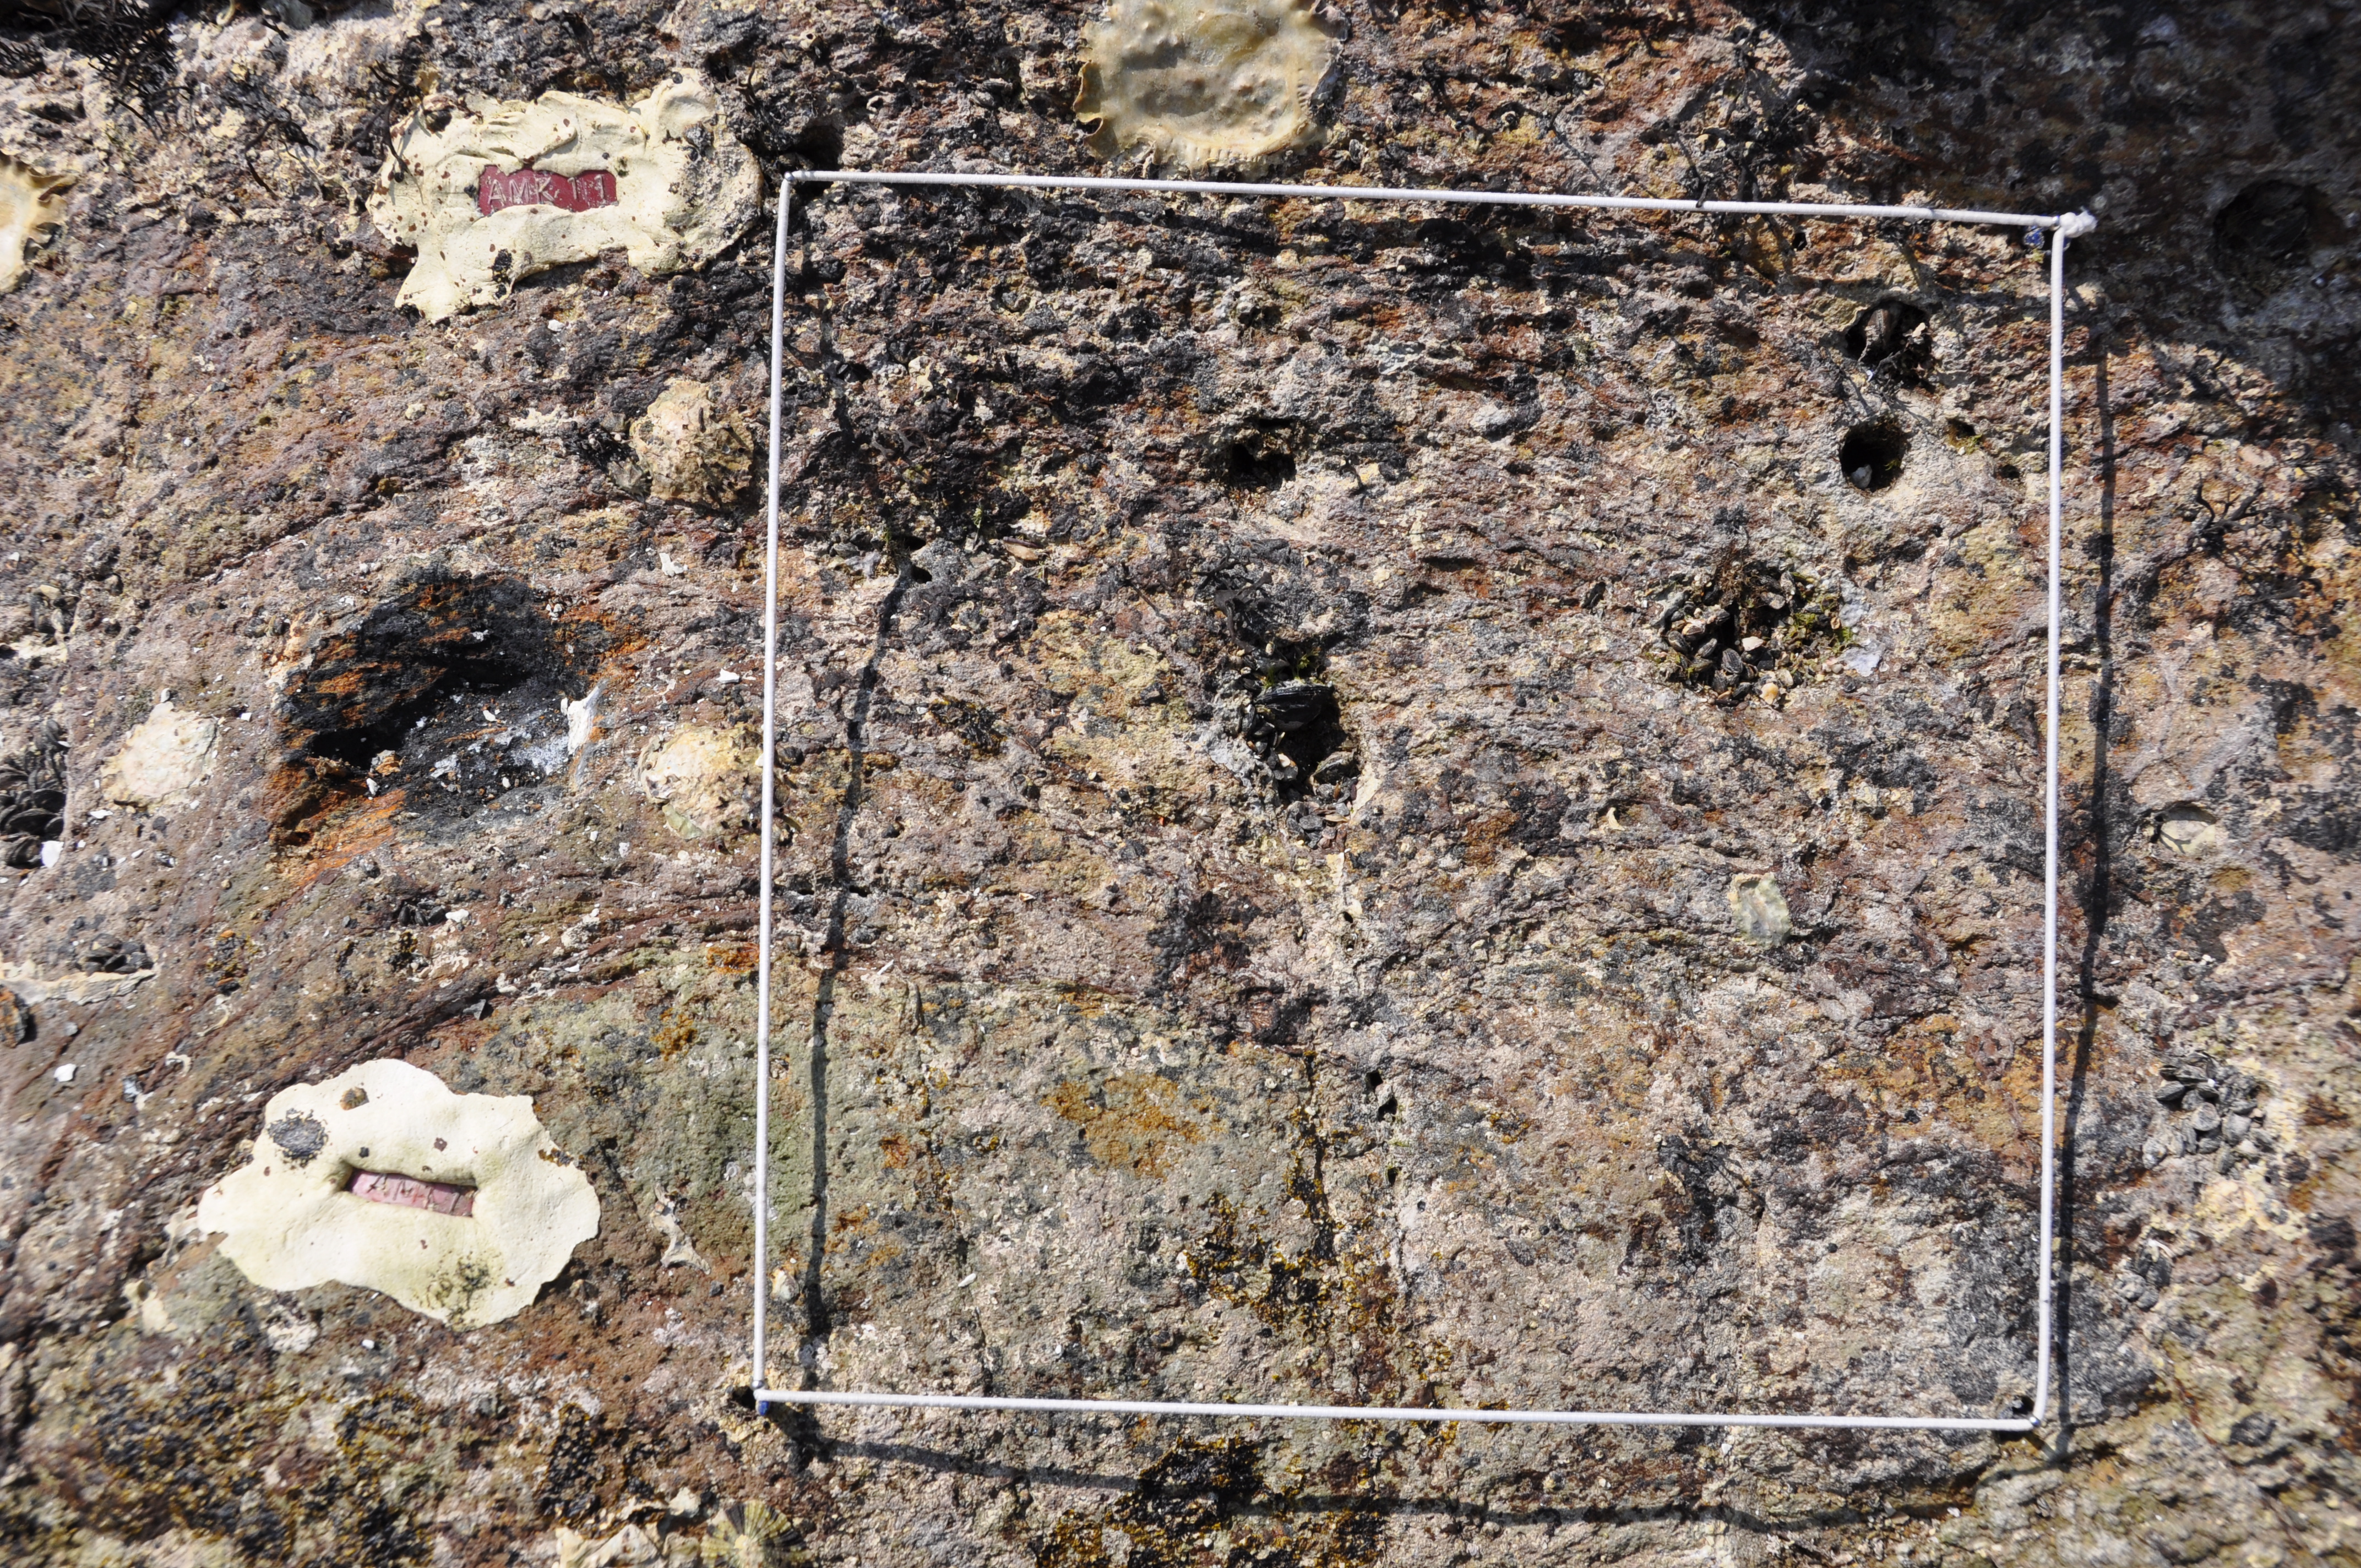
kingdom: Chromista
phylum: Ochrophyta
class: Phaeophyceae
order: Ishigeales
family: Ishigeaceae
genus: Ishige
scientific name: Ishige okamurae
